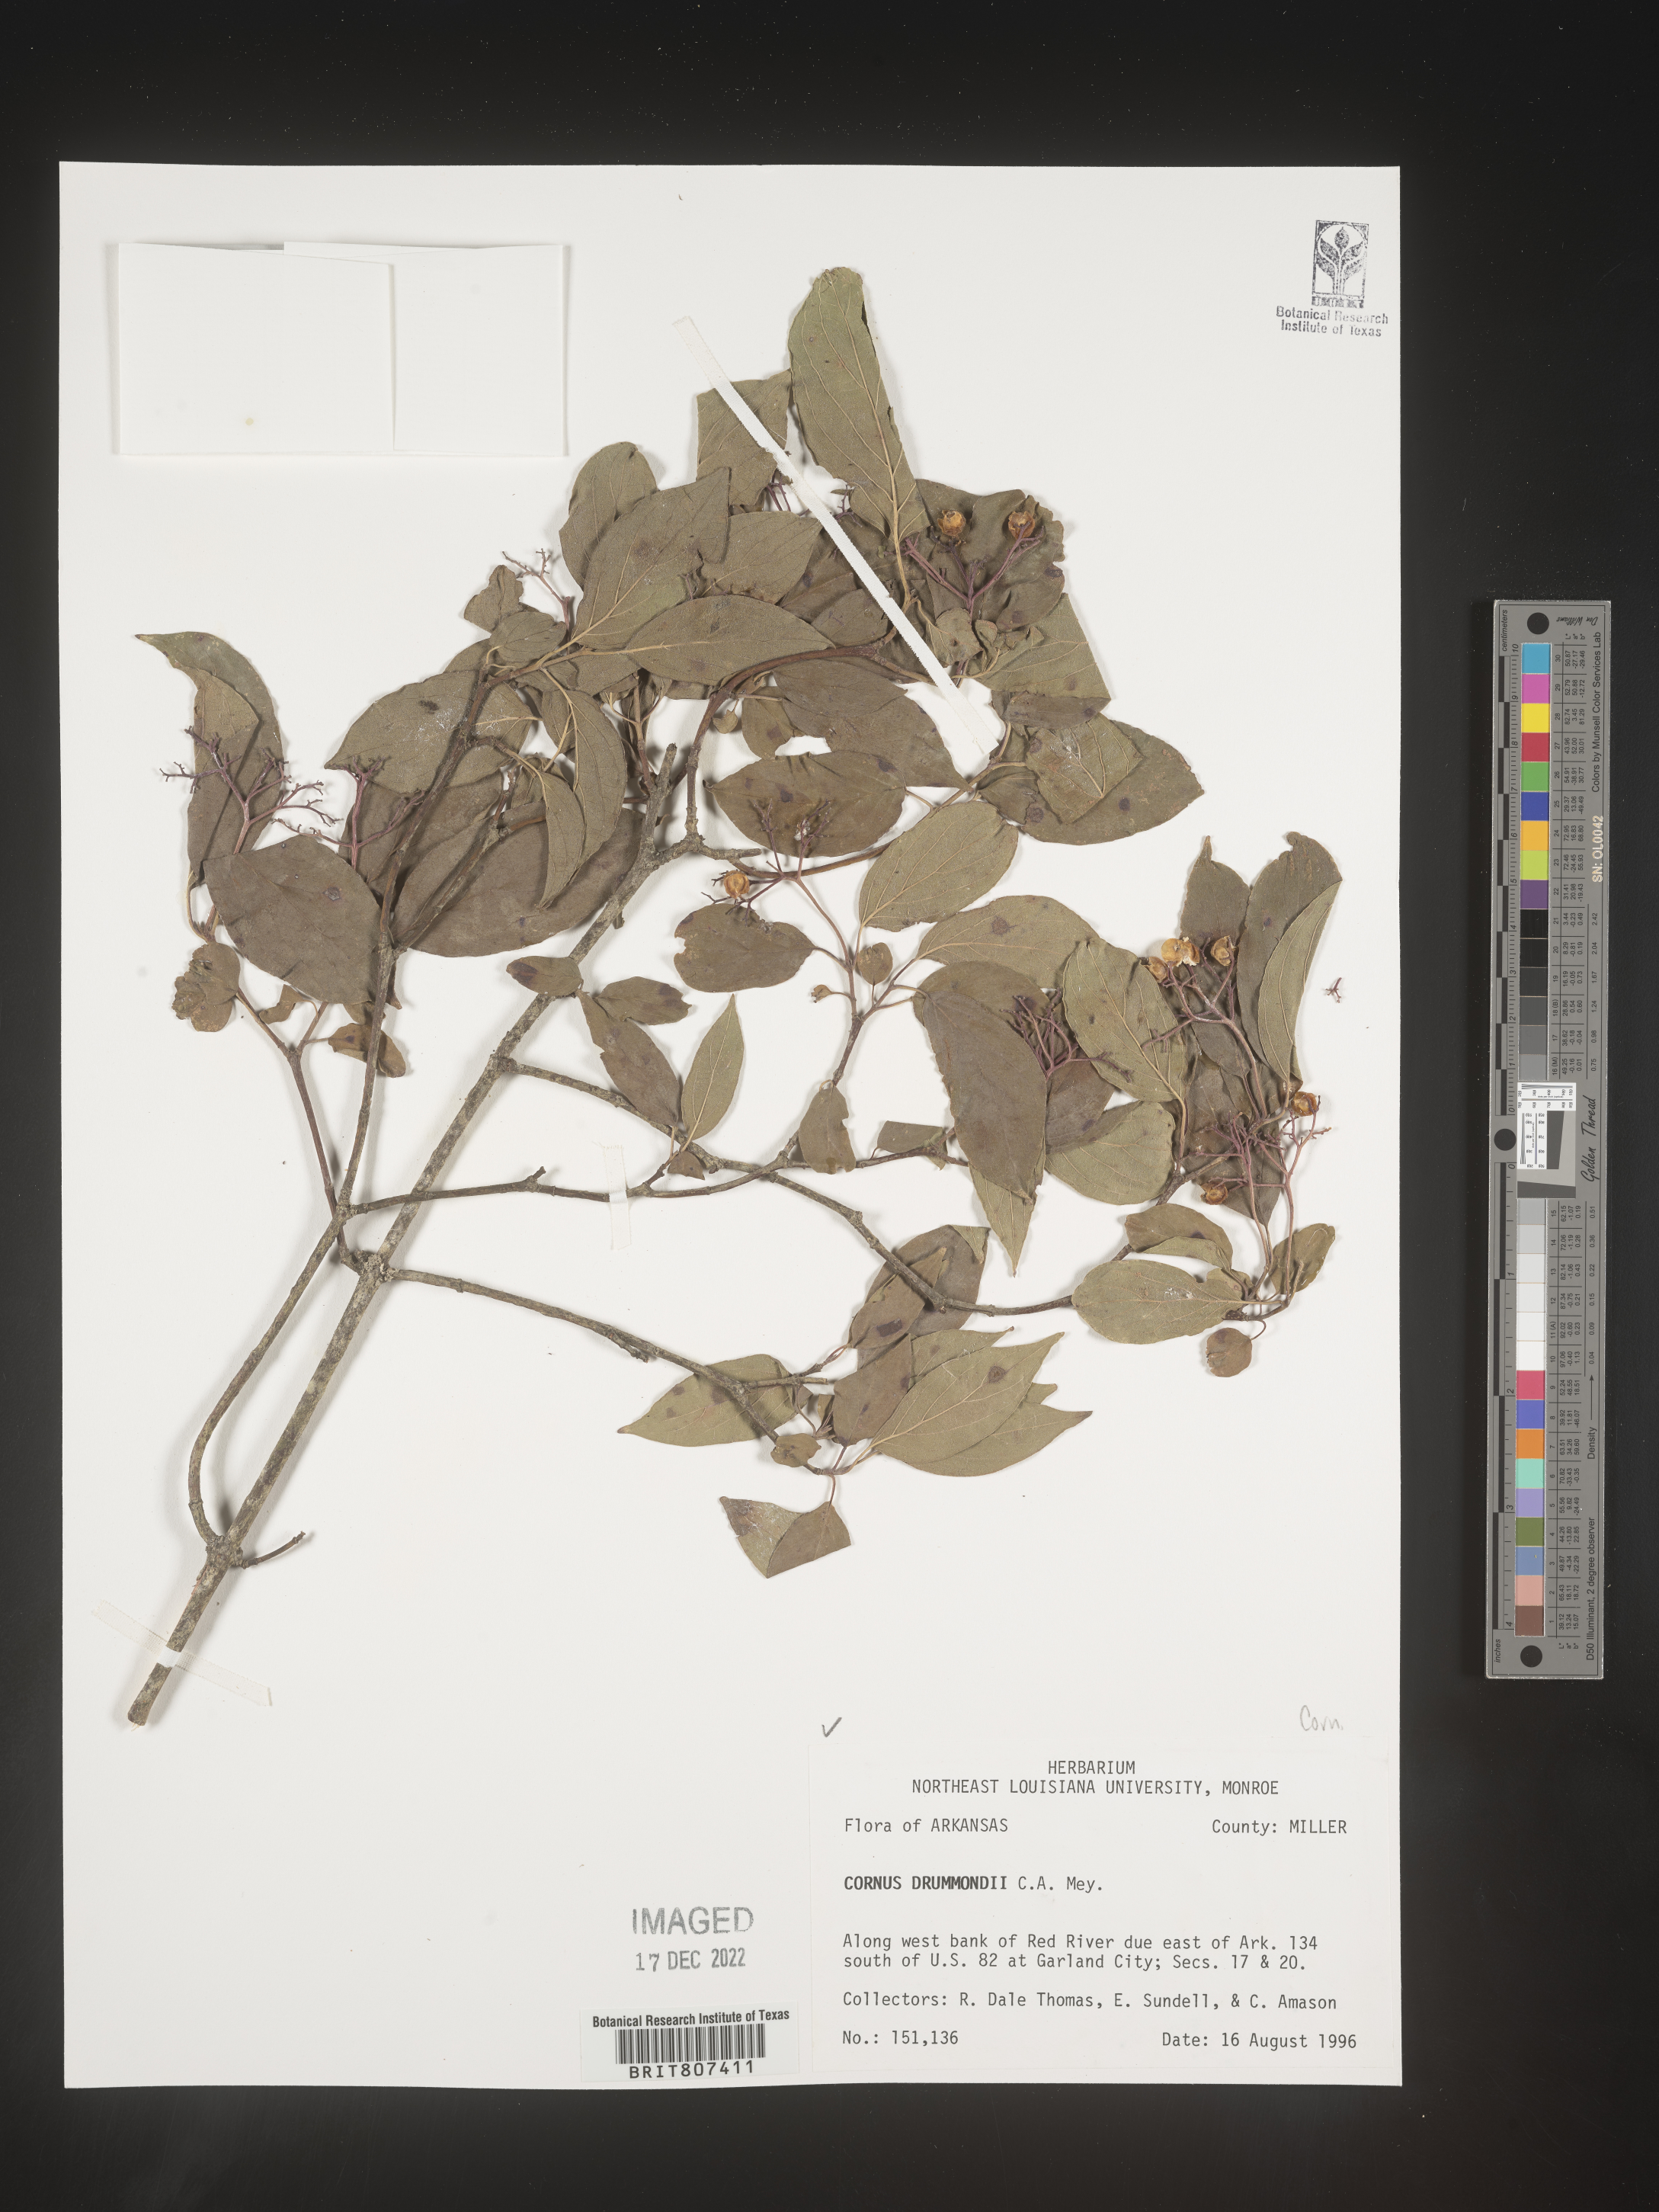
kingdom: Plantae
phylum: Tracheophyta
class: Magnoliopsida
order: Cornales
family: Cornaceae
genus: Cornus
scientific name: Cornus drummondii
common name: Rough-leaf dogwood
